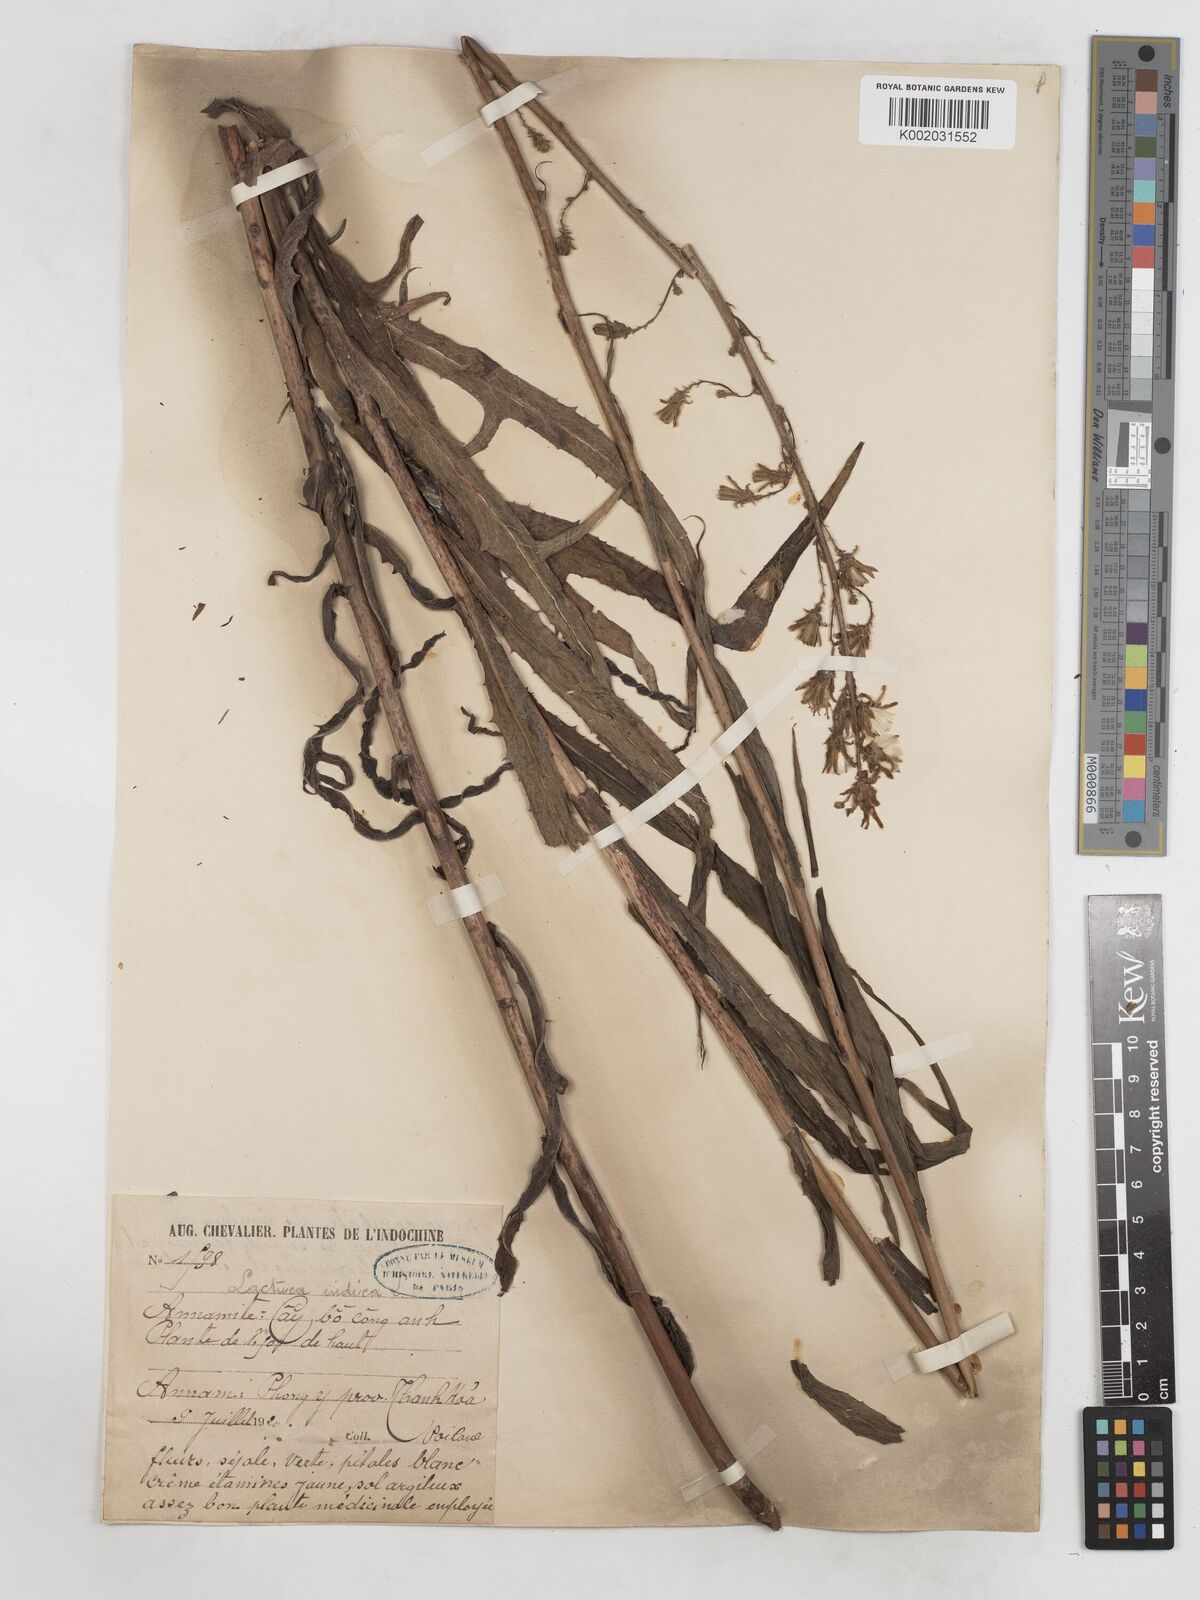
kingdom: Plantae
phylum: Tracheophyta
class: Magnoliopsida
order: Asterales
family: Asteraceae
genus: Lactuca
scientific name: Lactuca indica
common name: Wild lettuce
